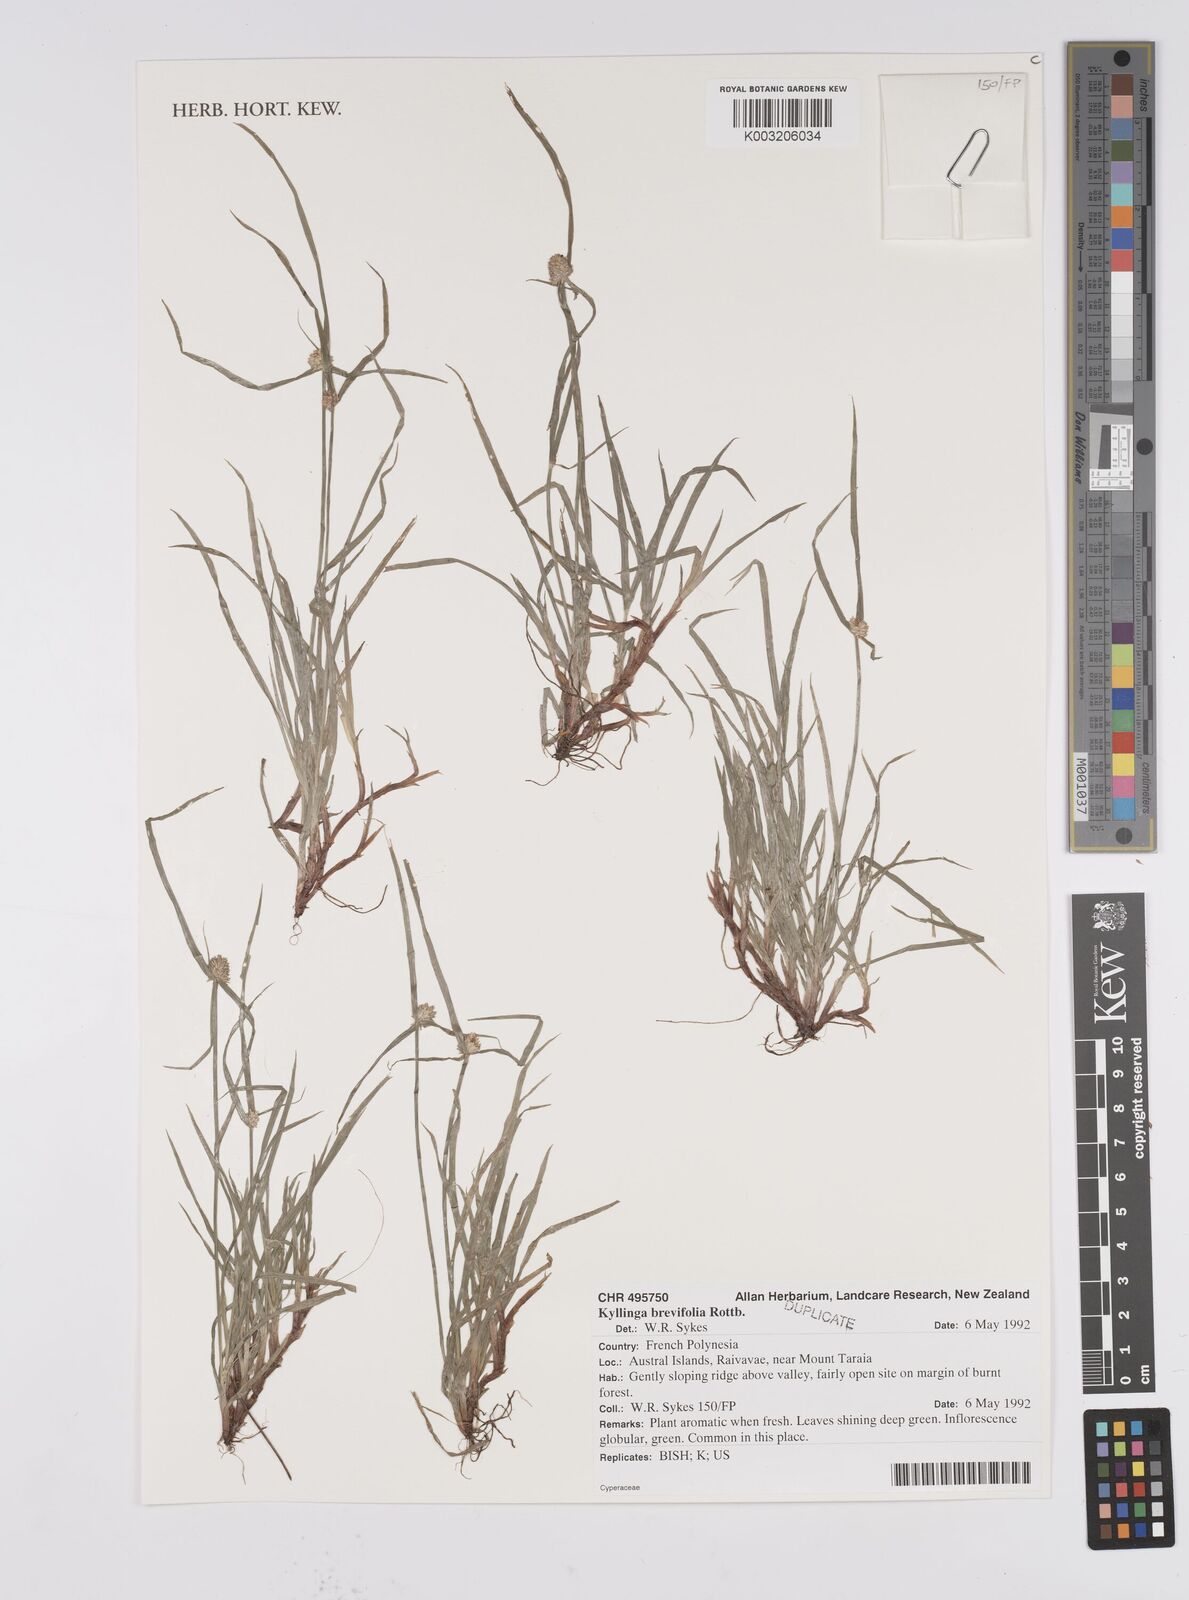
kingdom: Plantae
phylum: Tracheophyta
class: Liliopsida
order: Poales
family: Cyperaceae
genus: Cyperus
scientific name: Cyperus brevifolius
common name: Globe kyllinga
